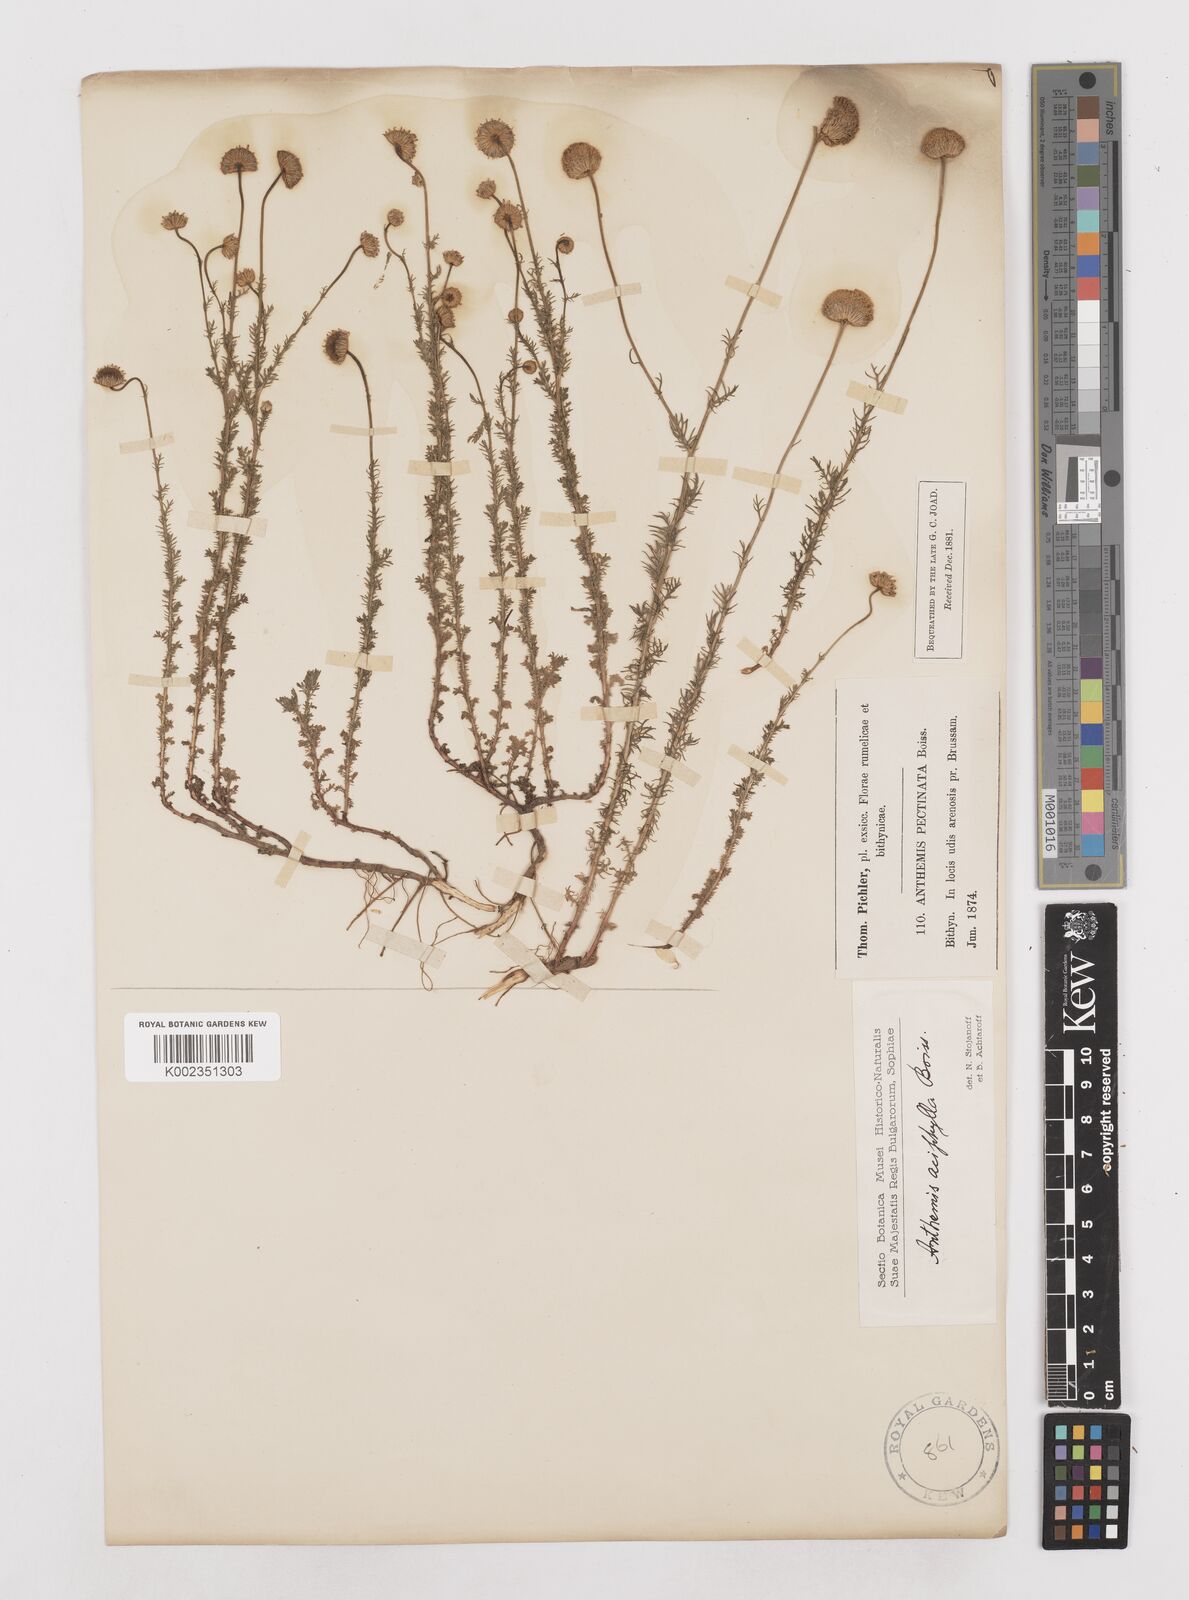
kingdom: Plantae
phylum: Tracheophyta
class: Magnoliopsida
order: Asterales
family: Asteraceae
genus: Anthemis
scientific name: Anthemis aciphylla
